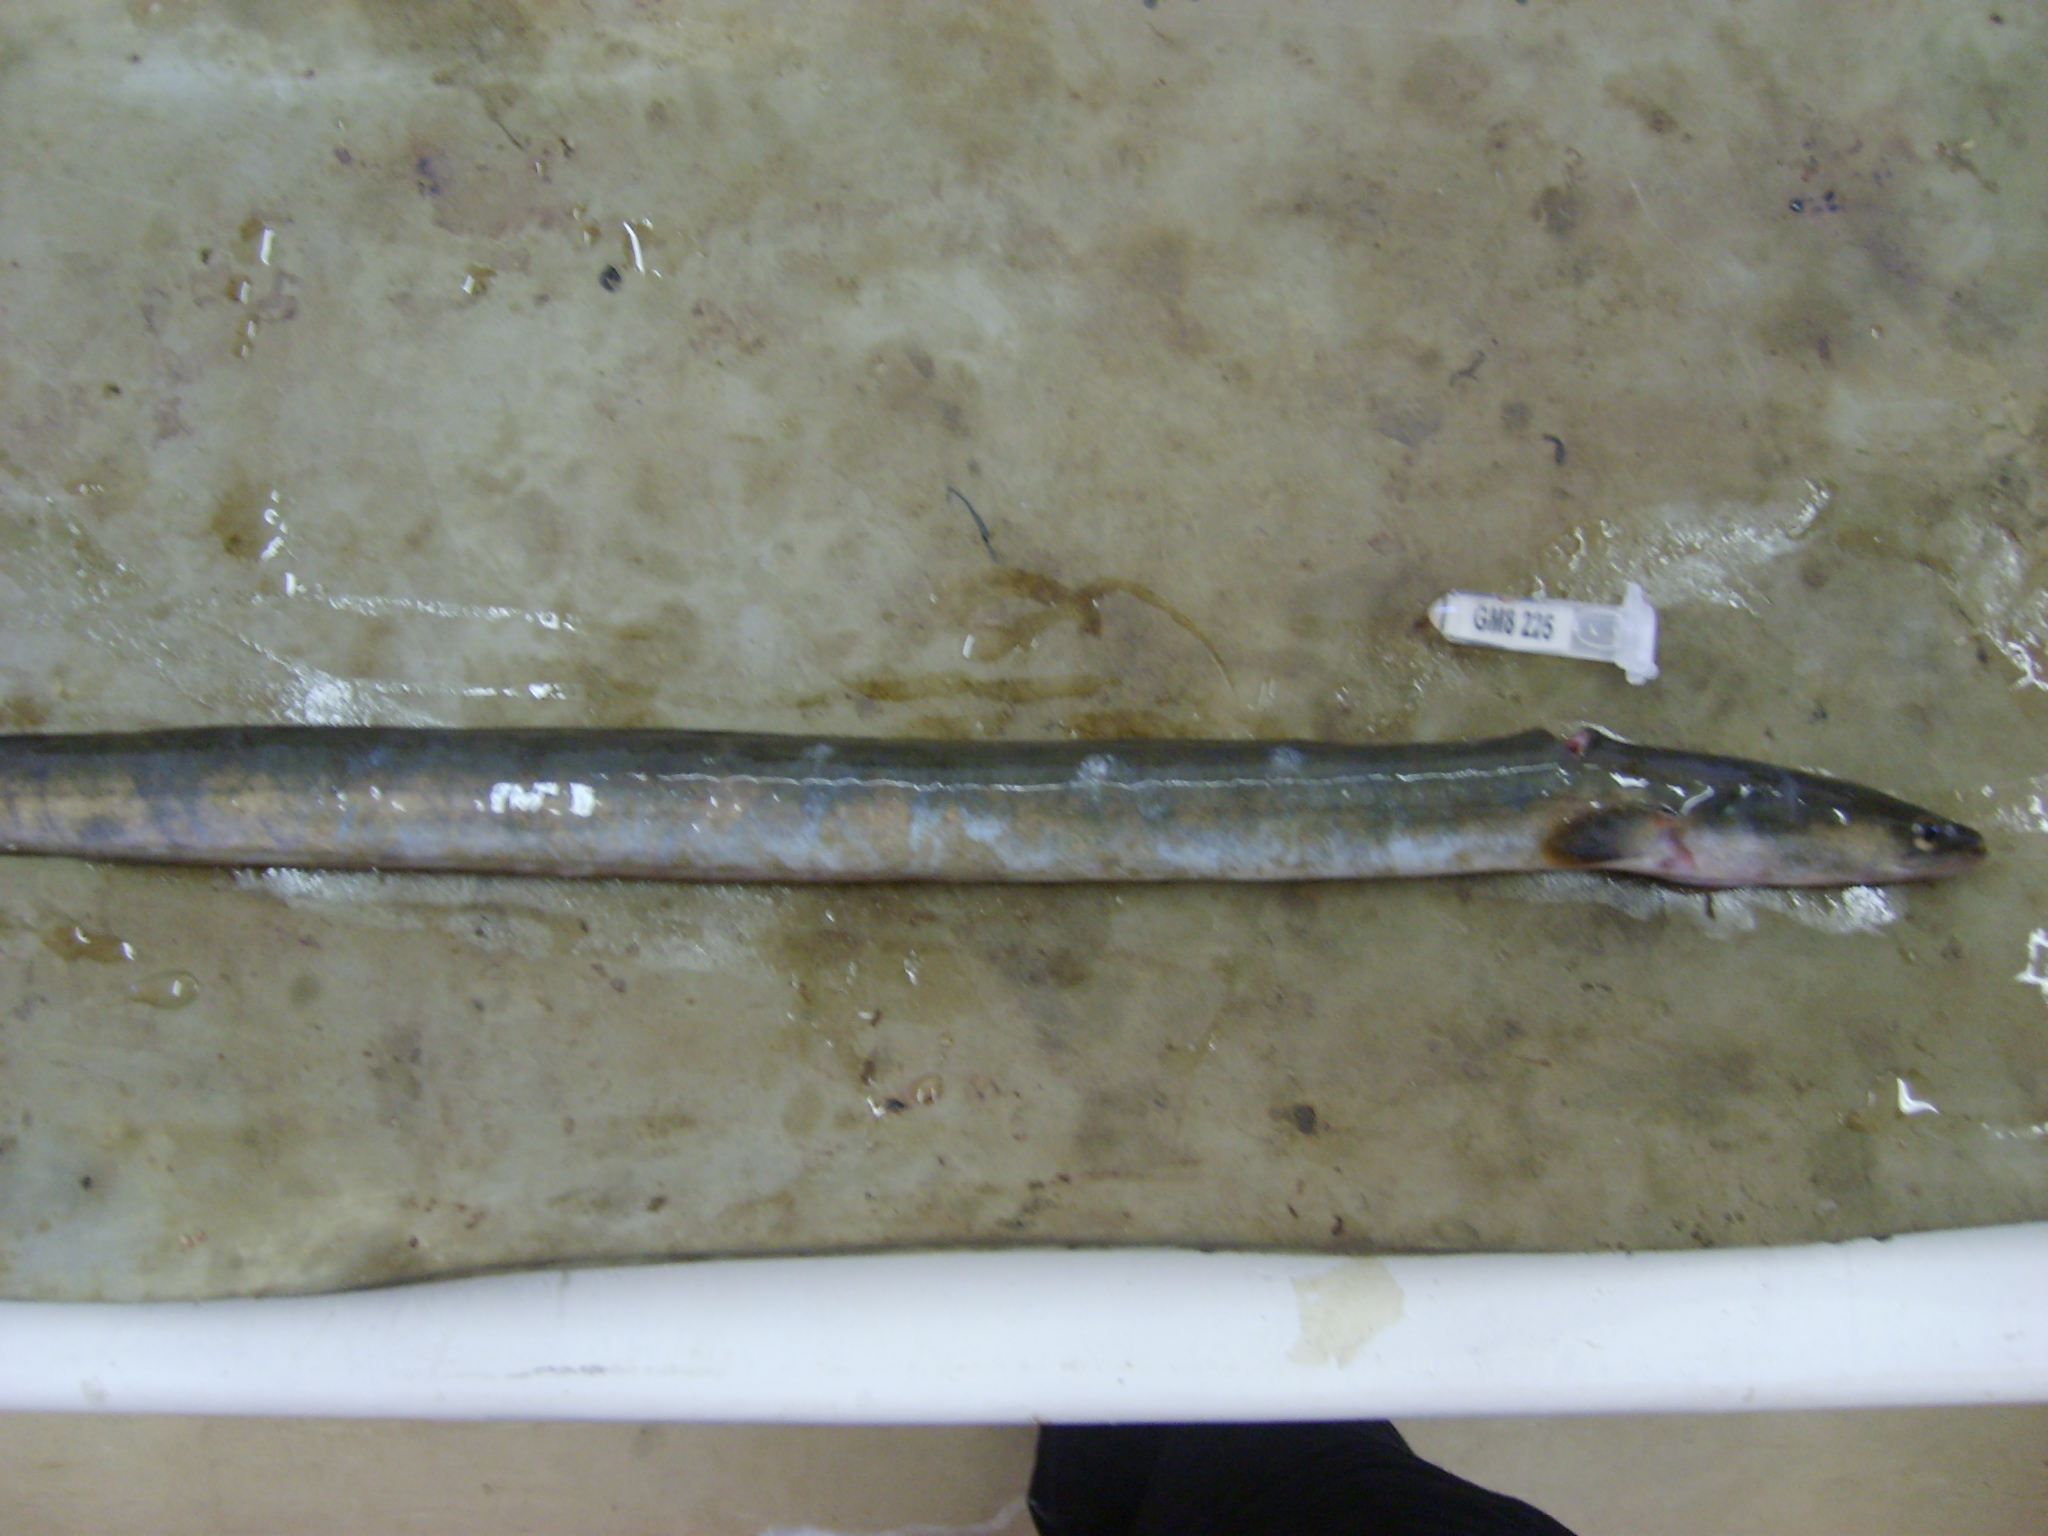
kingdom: Animalia
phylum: Chordata
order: Anguilliformes
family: Anguillidae
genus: Anguilla
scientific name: Anguilla mossambica
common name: African longfin eel
